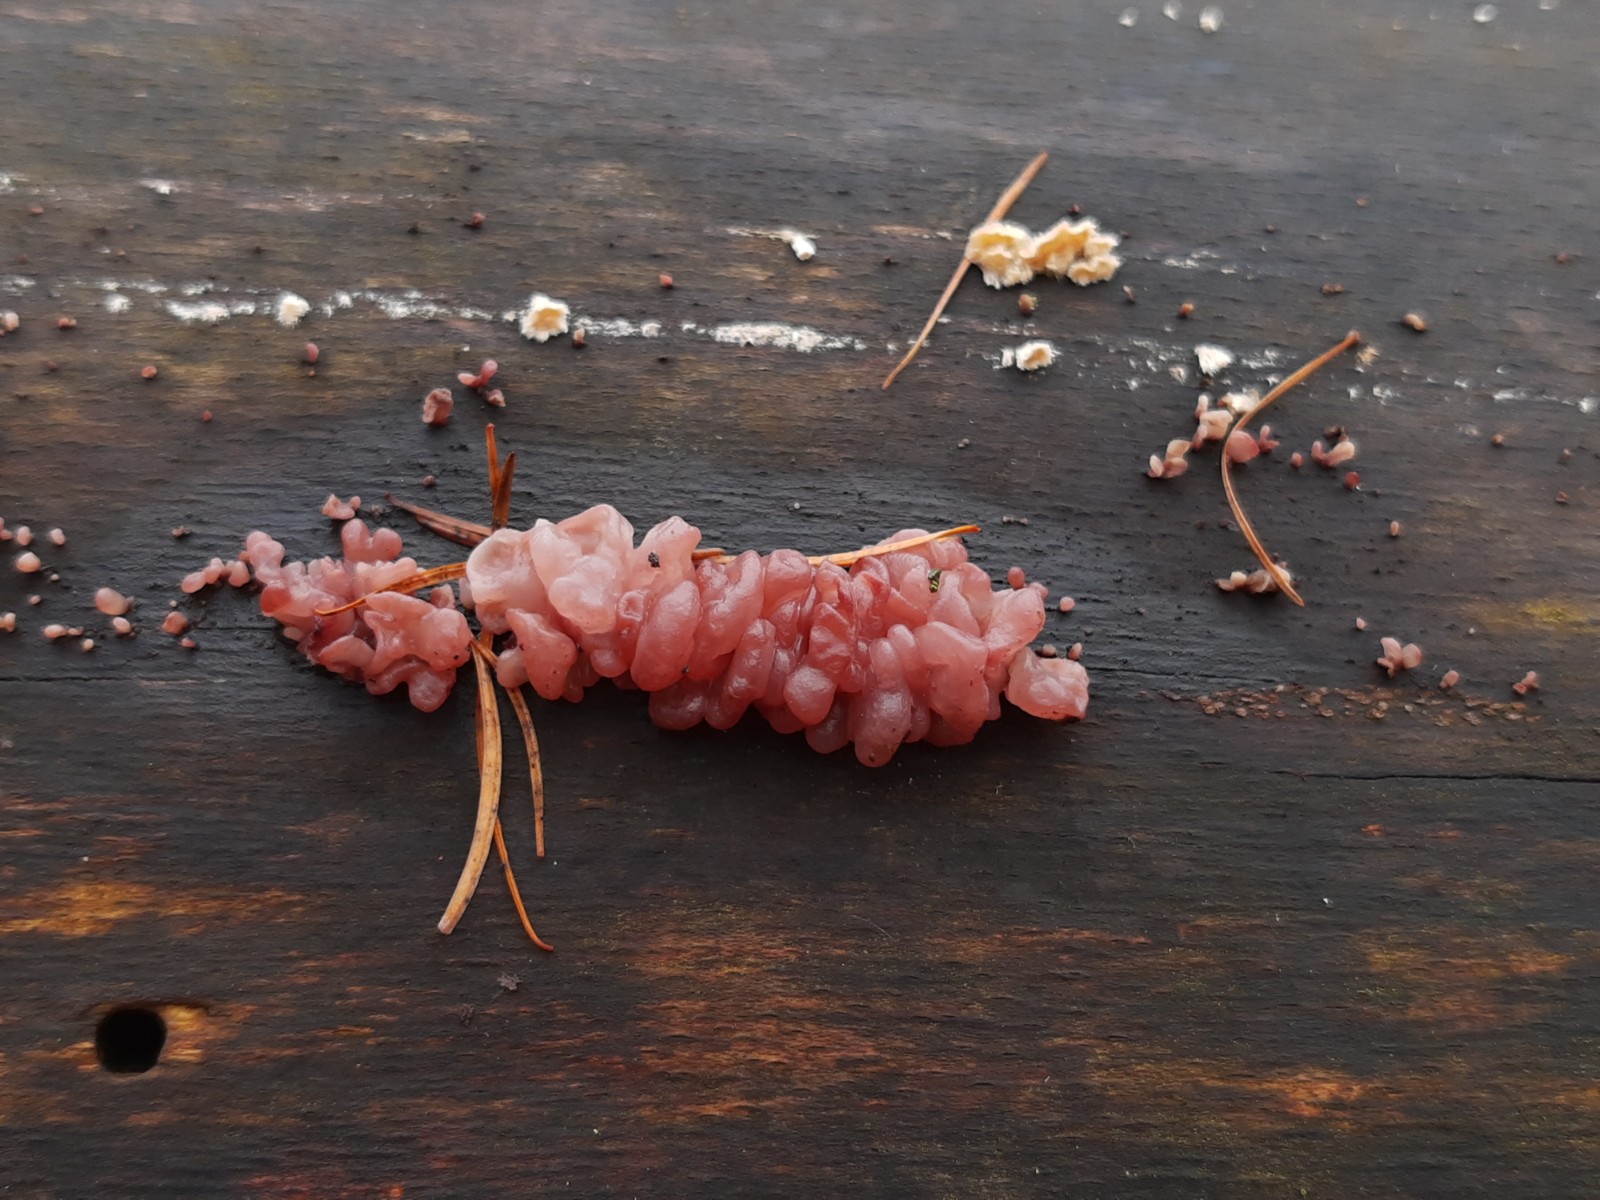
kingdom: Fungi
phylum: Ascomycota
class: Leotiomycetes
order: Helotiales
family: Gelatinodiscaceae
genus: Ascocoryne
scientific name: Ascocoryne sarcoides
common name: rødlilla sejskive
